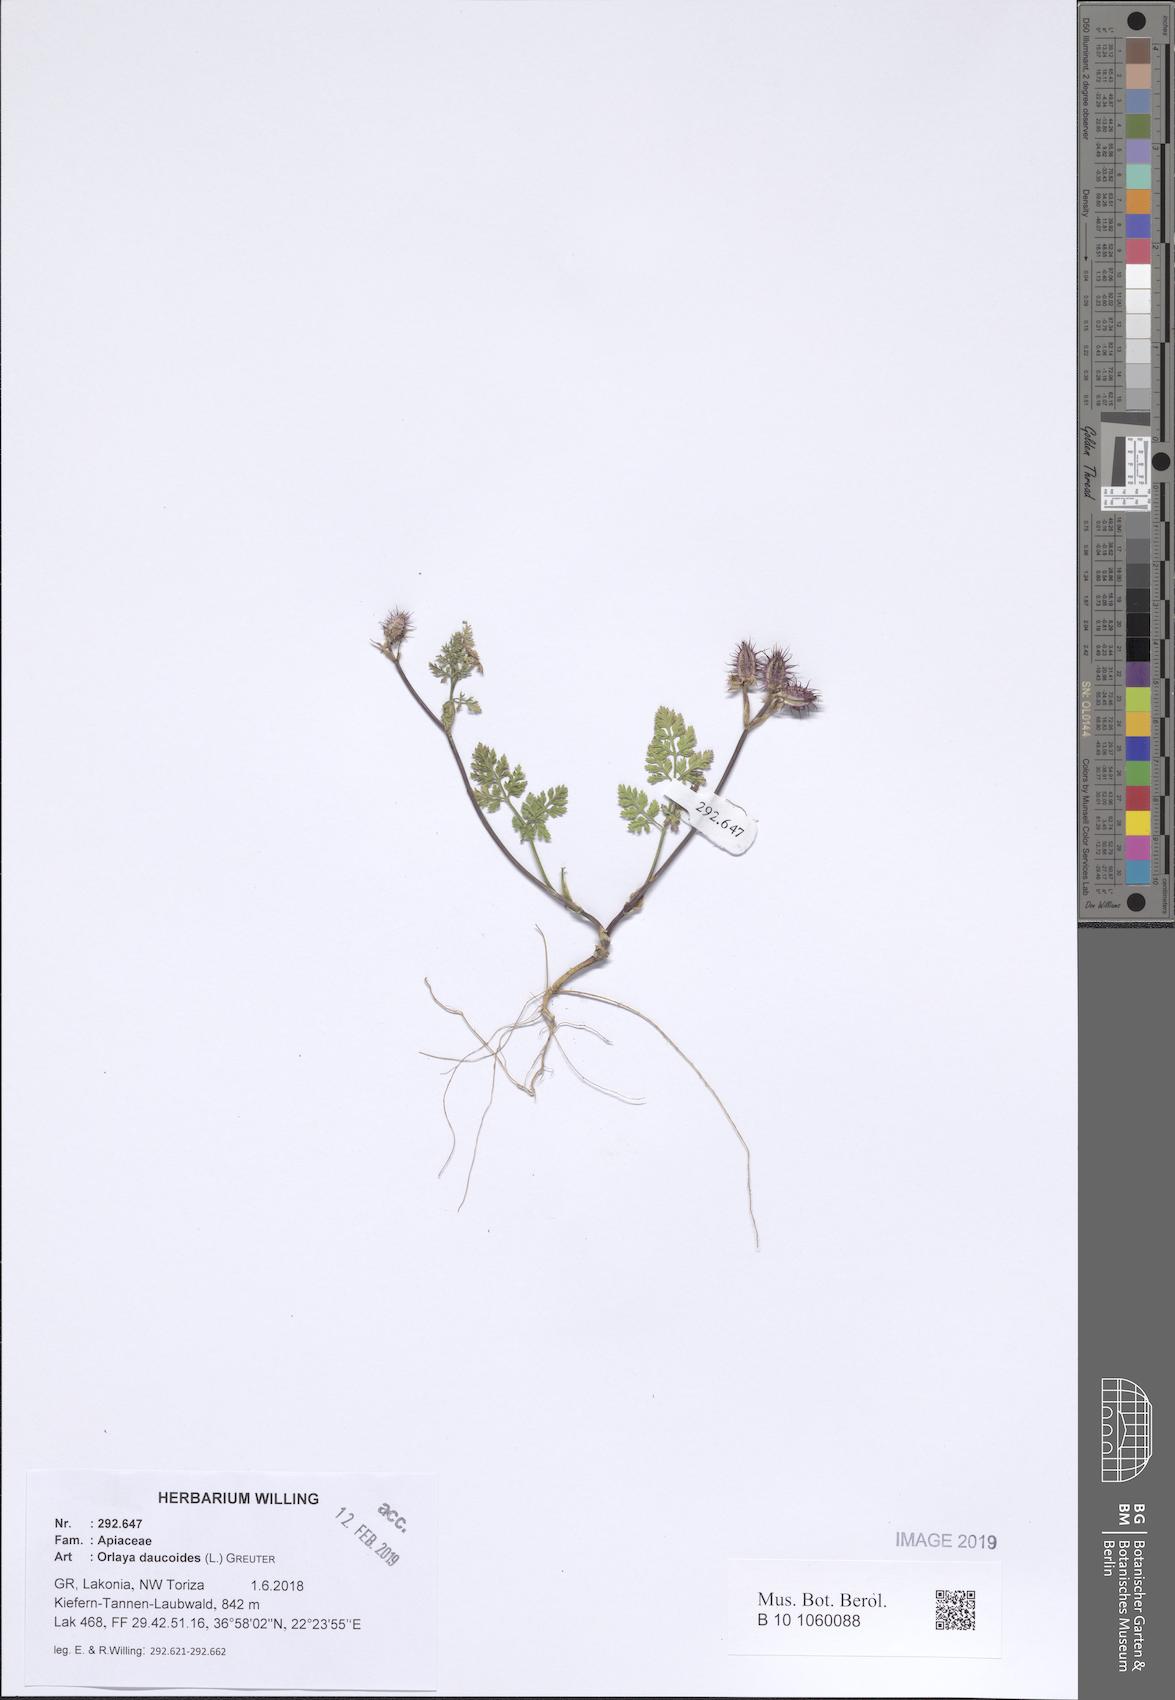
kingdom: Plantae
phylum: Tracheophyta
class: Magnoliopsida
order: Apiales
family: Apiaceae
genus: Orlaya
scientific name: Orlaya daucoides
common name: Flat-fruit orlaya
